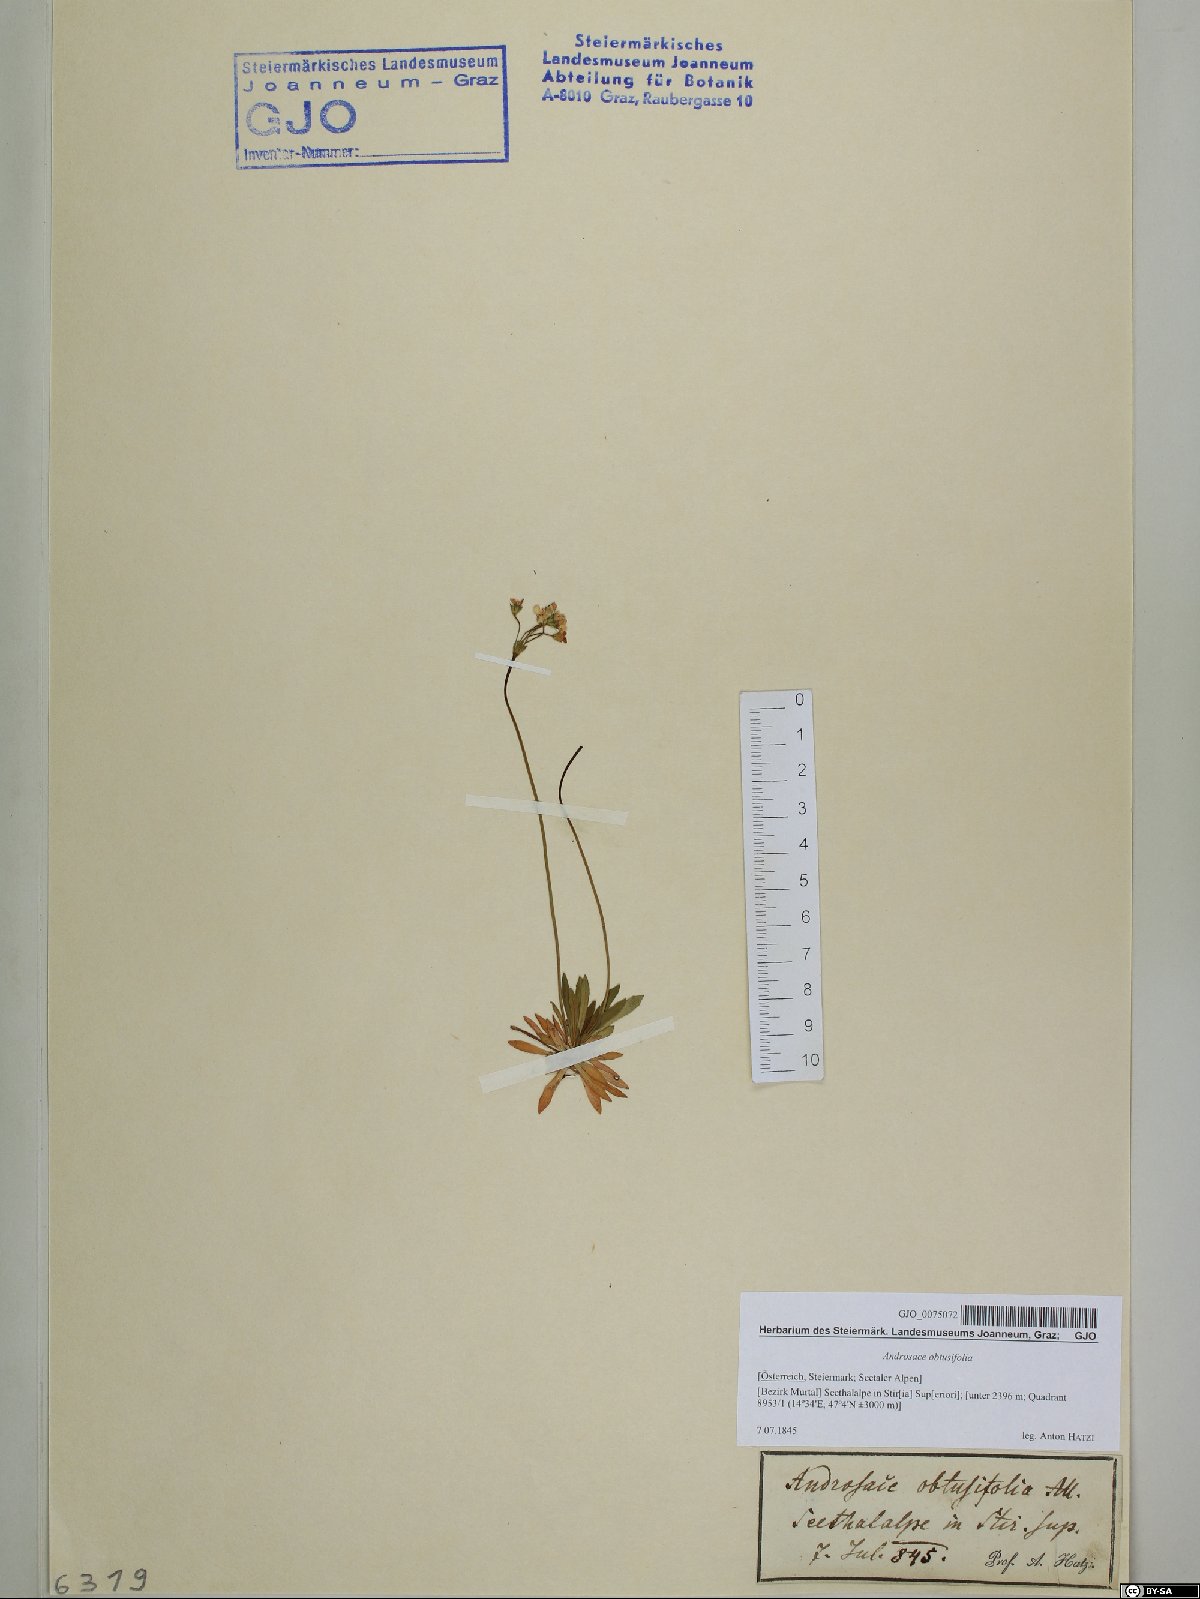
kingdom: Plantae
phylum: Tracheophyta
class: Magnoliopsida
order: Ericales
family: Primulaceae
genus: Androsace
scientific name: Androsace obtusifolia
